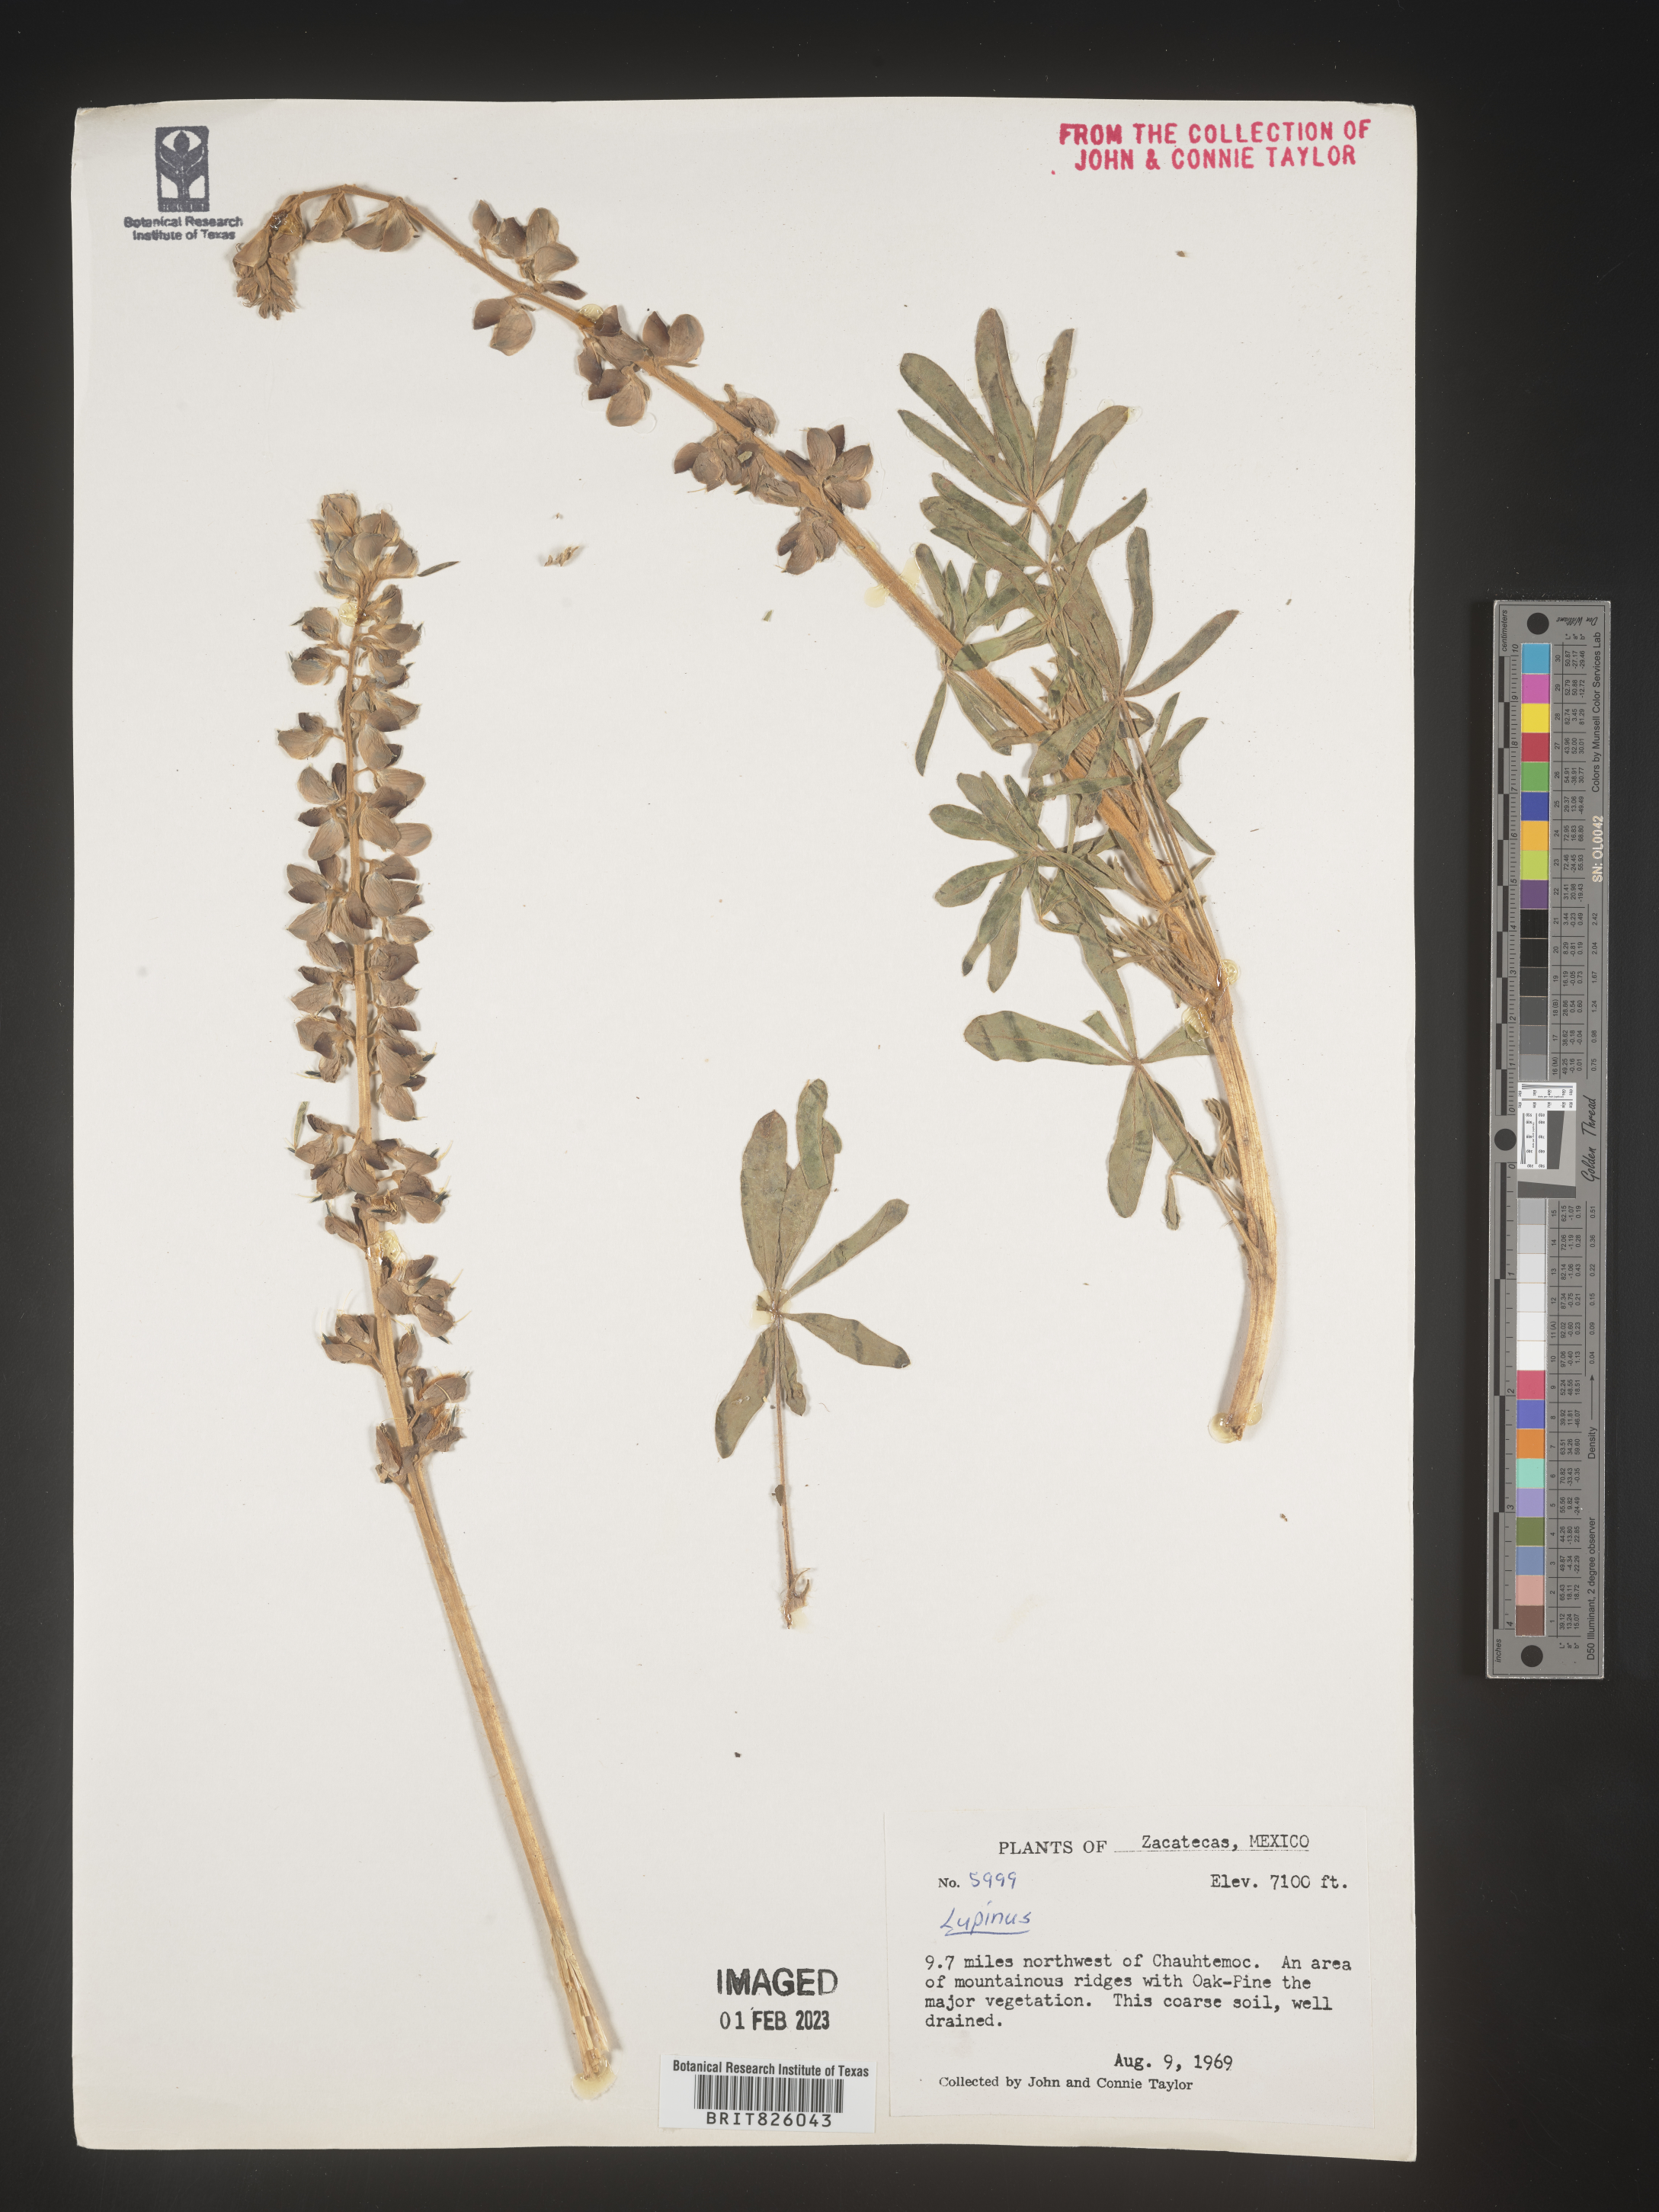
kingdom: Plantae
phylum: Tracheophyta
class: Magnoliopsida
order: Fabales
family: Fabaceae
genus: Lupinus
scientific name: Lupinus
